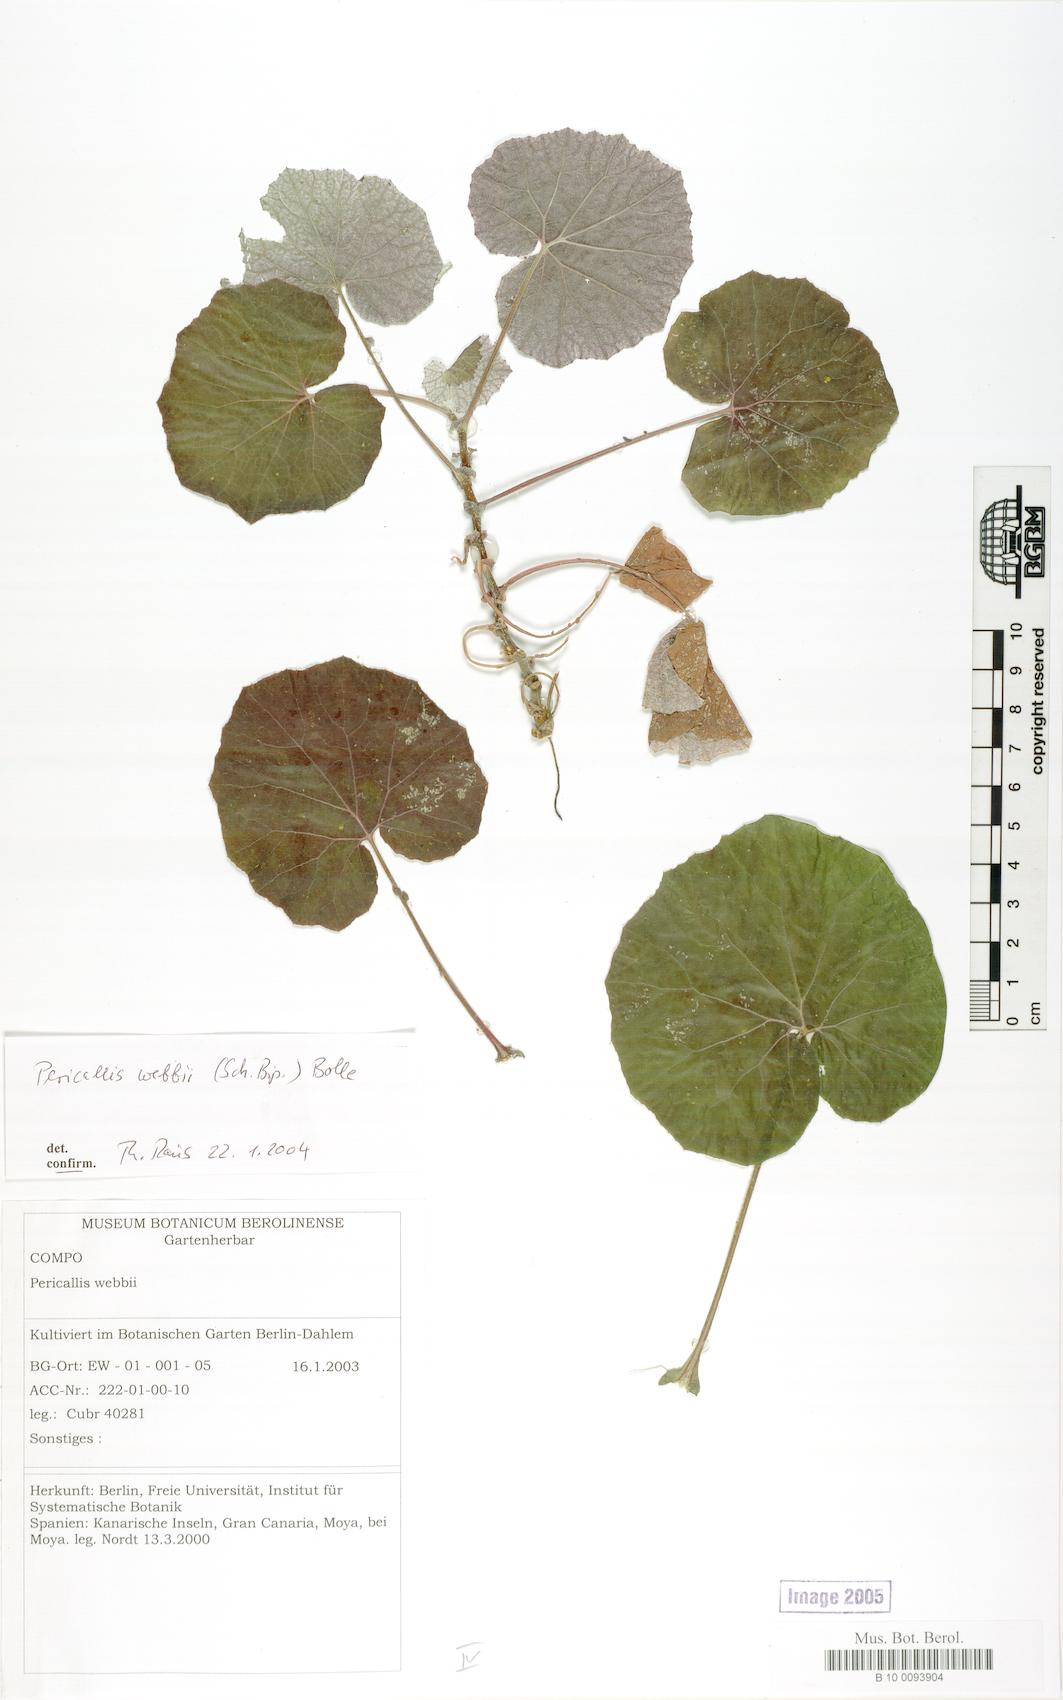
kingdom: Plantae
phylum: Tracheophyta
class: Magnoliopsida
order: Asterales
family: Asteraceae
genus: Pericallis
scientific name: Pericallis webbii
